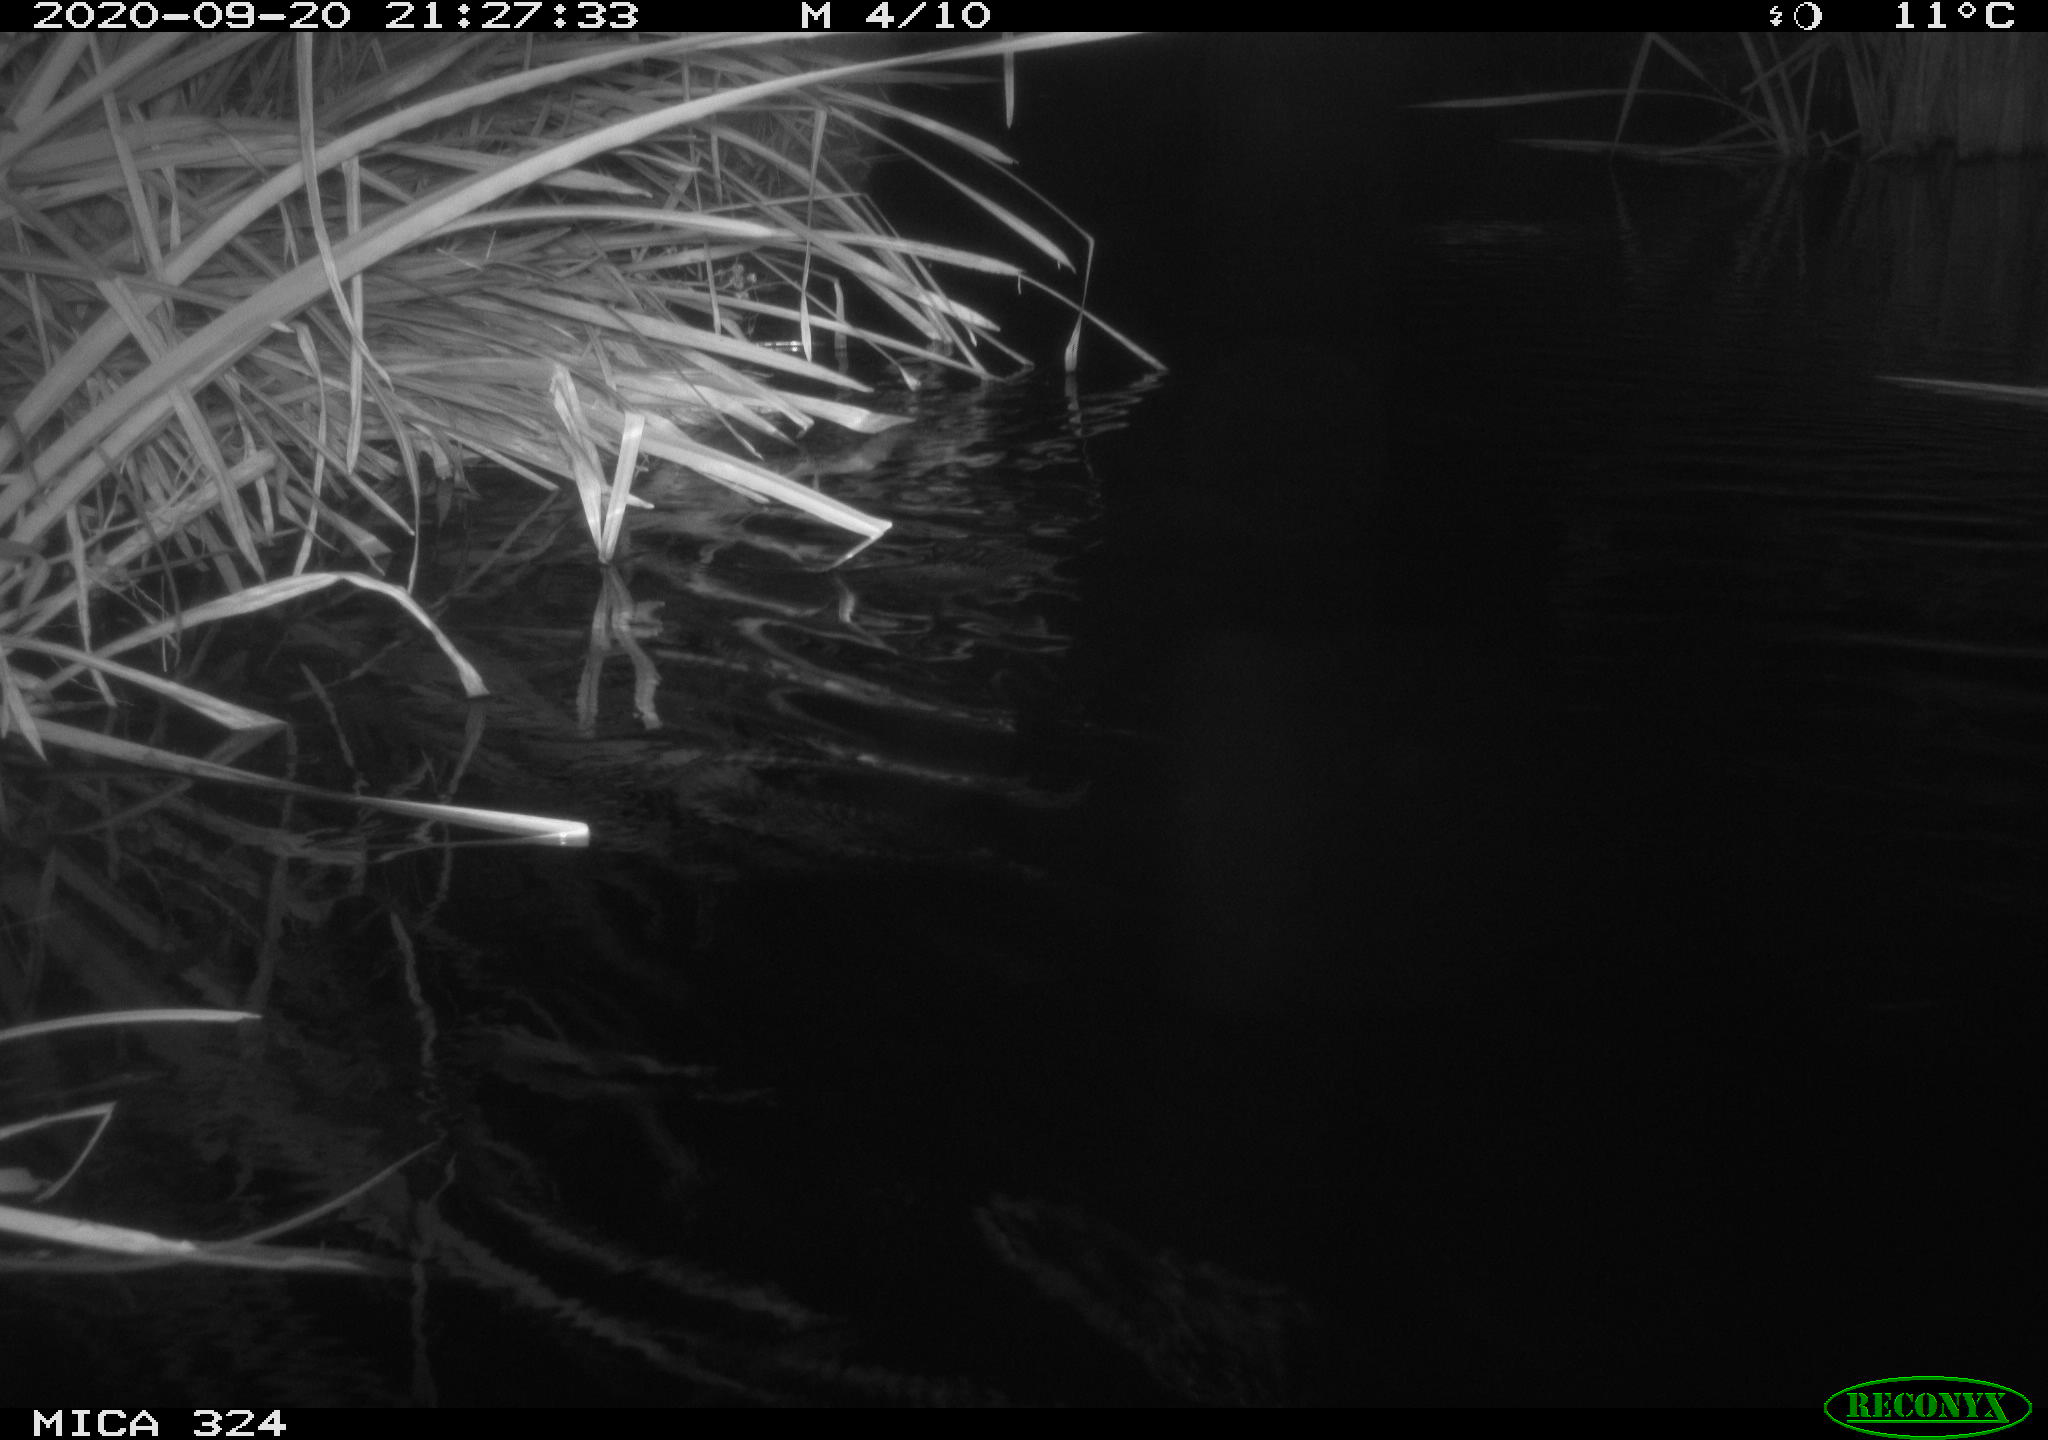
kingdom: Animalia
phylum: Chordata
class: Mammalia
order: Rodentia
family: Cricetidae
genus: Ondatra
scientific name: Ondatra zibethicus
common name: Muskrat
